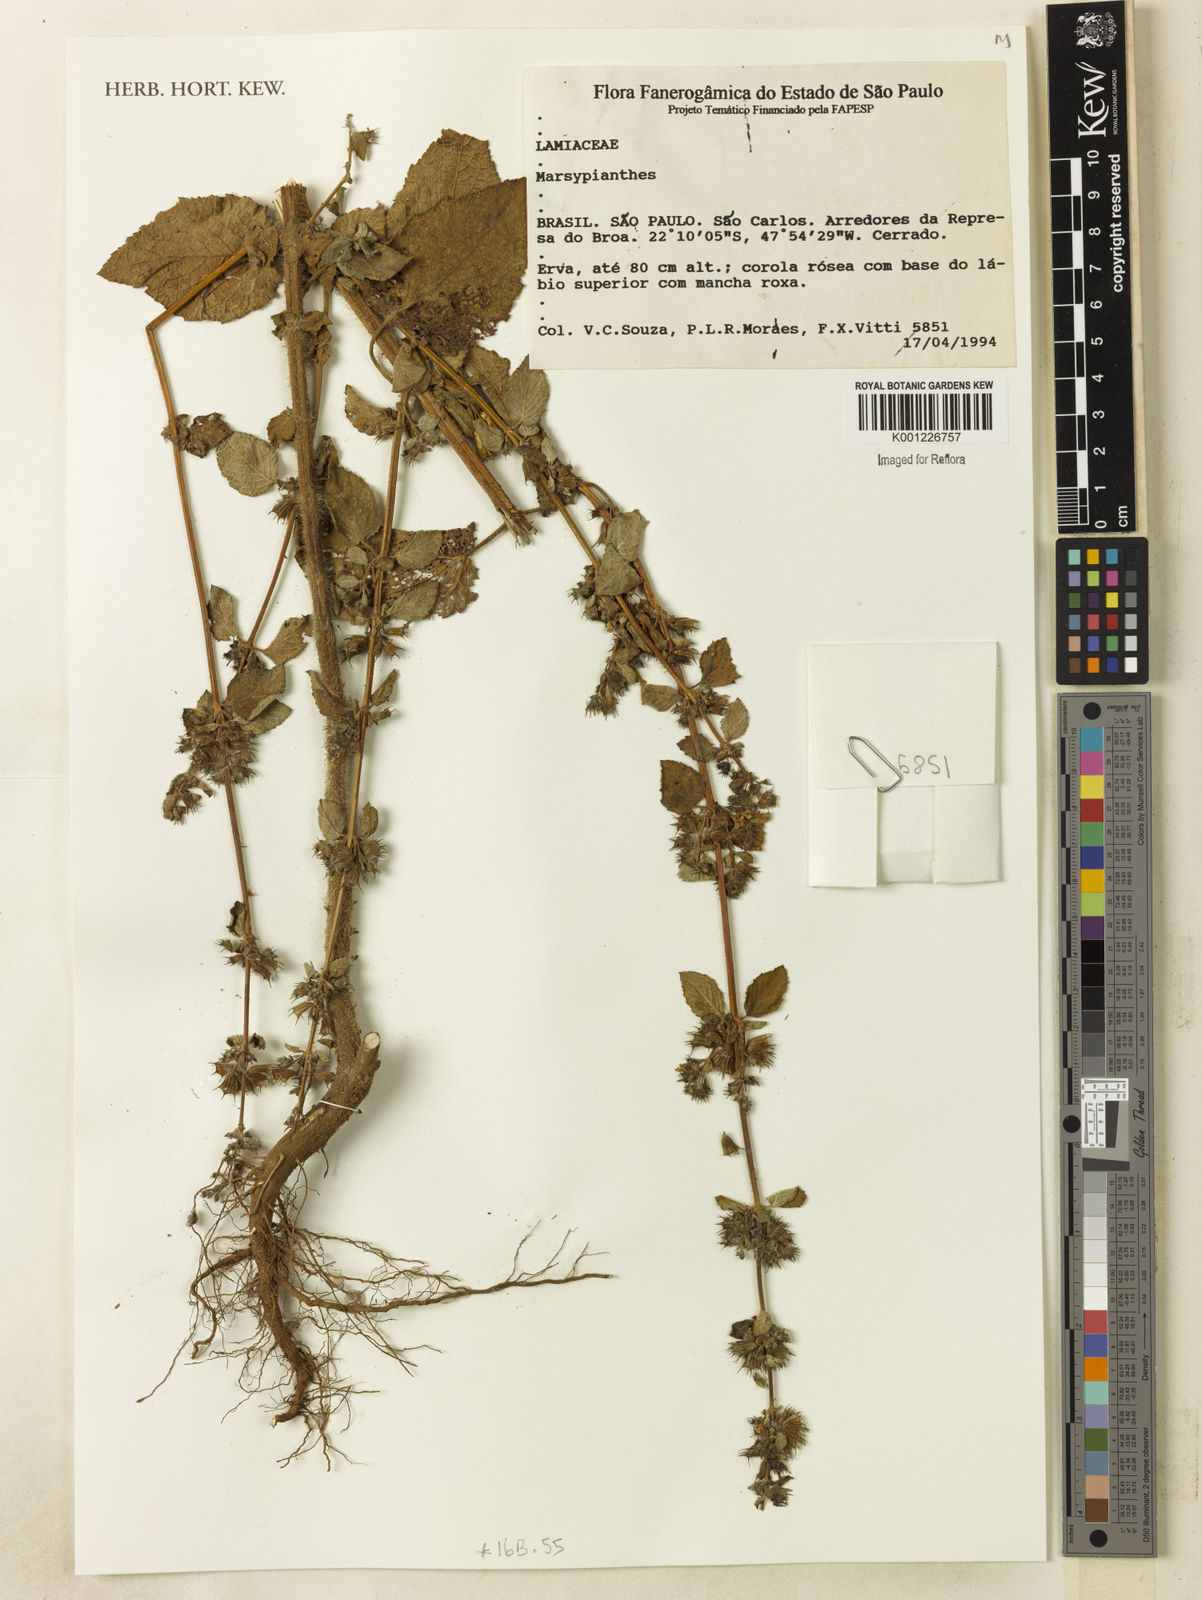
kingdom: Plantae
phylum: Tracheophyta
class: Magnoliopsida
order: Lamiales
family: Lamiaceae
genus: Marsypianthes
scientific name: Marsypianthes
